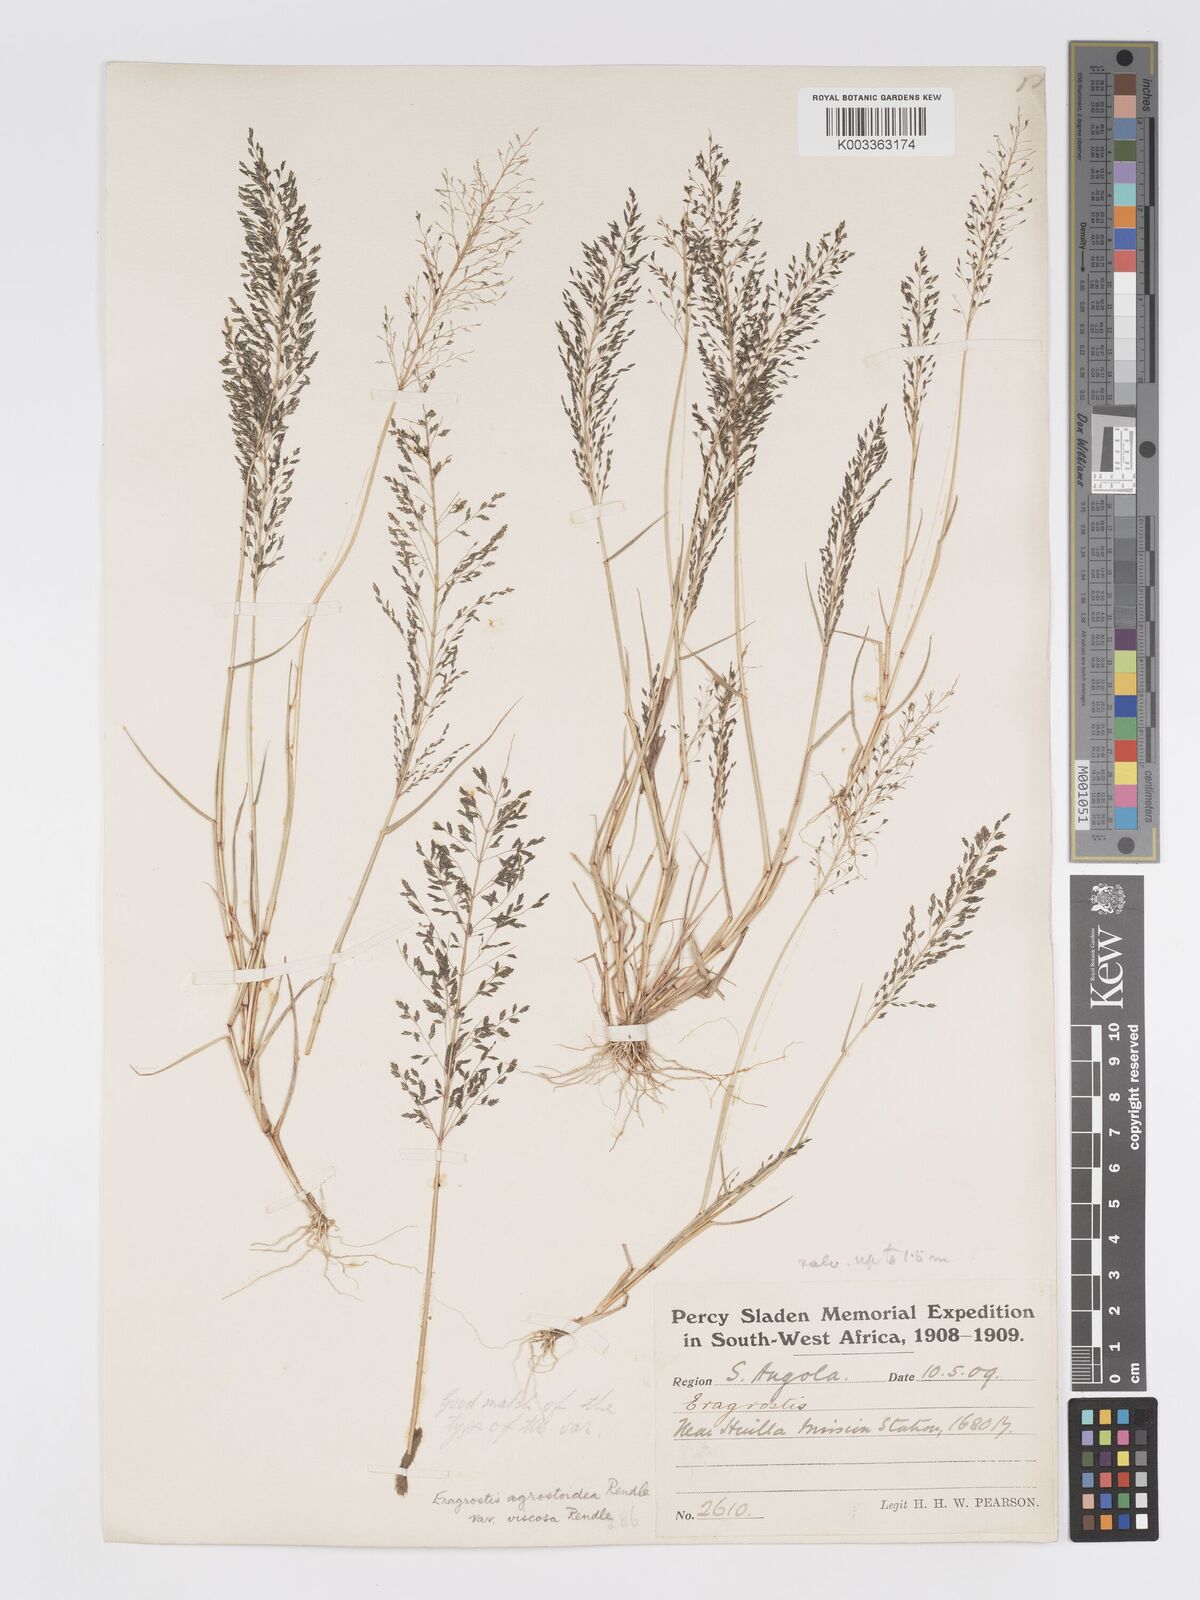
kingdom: Plantae
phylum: Tracheophyta
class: Liliopsida
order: Poales
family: Poaceae
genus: Eragrostis
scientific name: Eragrostis cylindriflora
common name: Cylinderflower lovegrass
